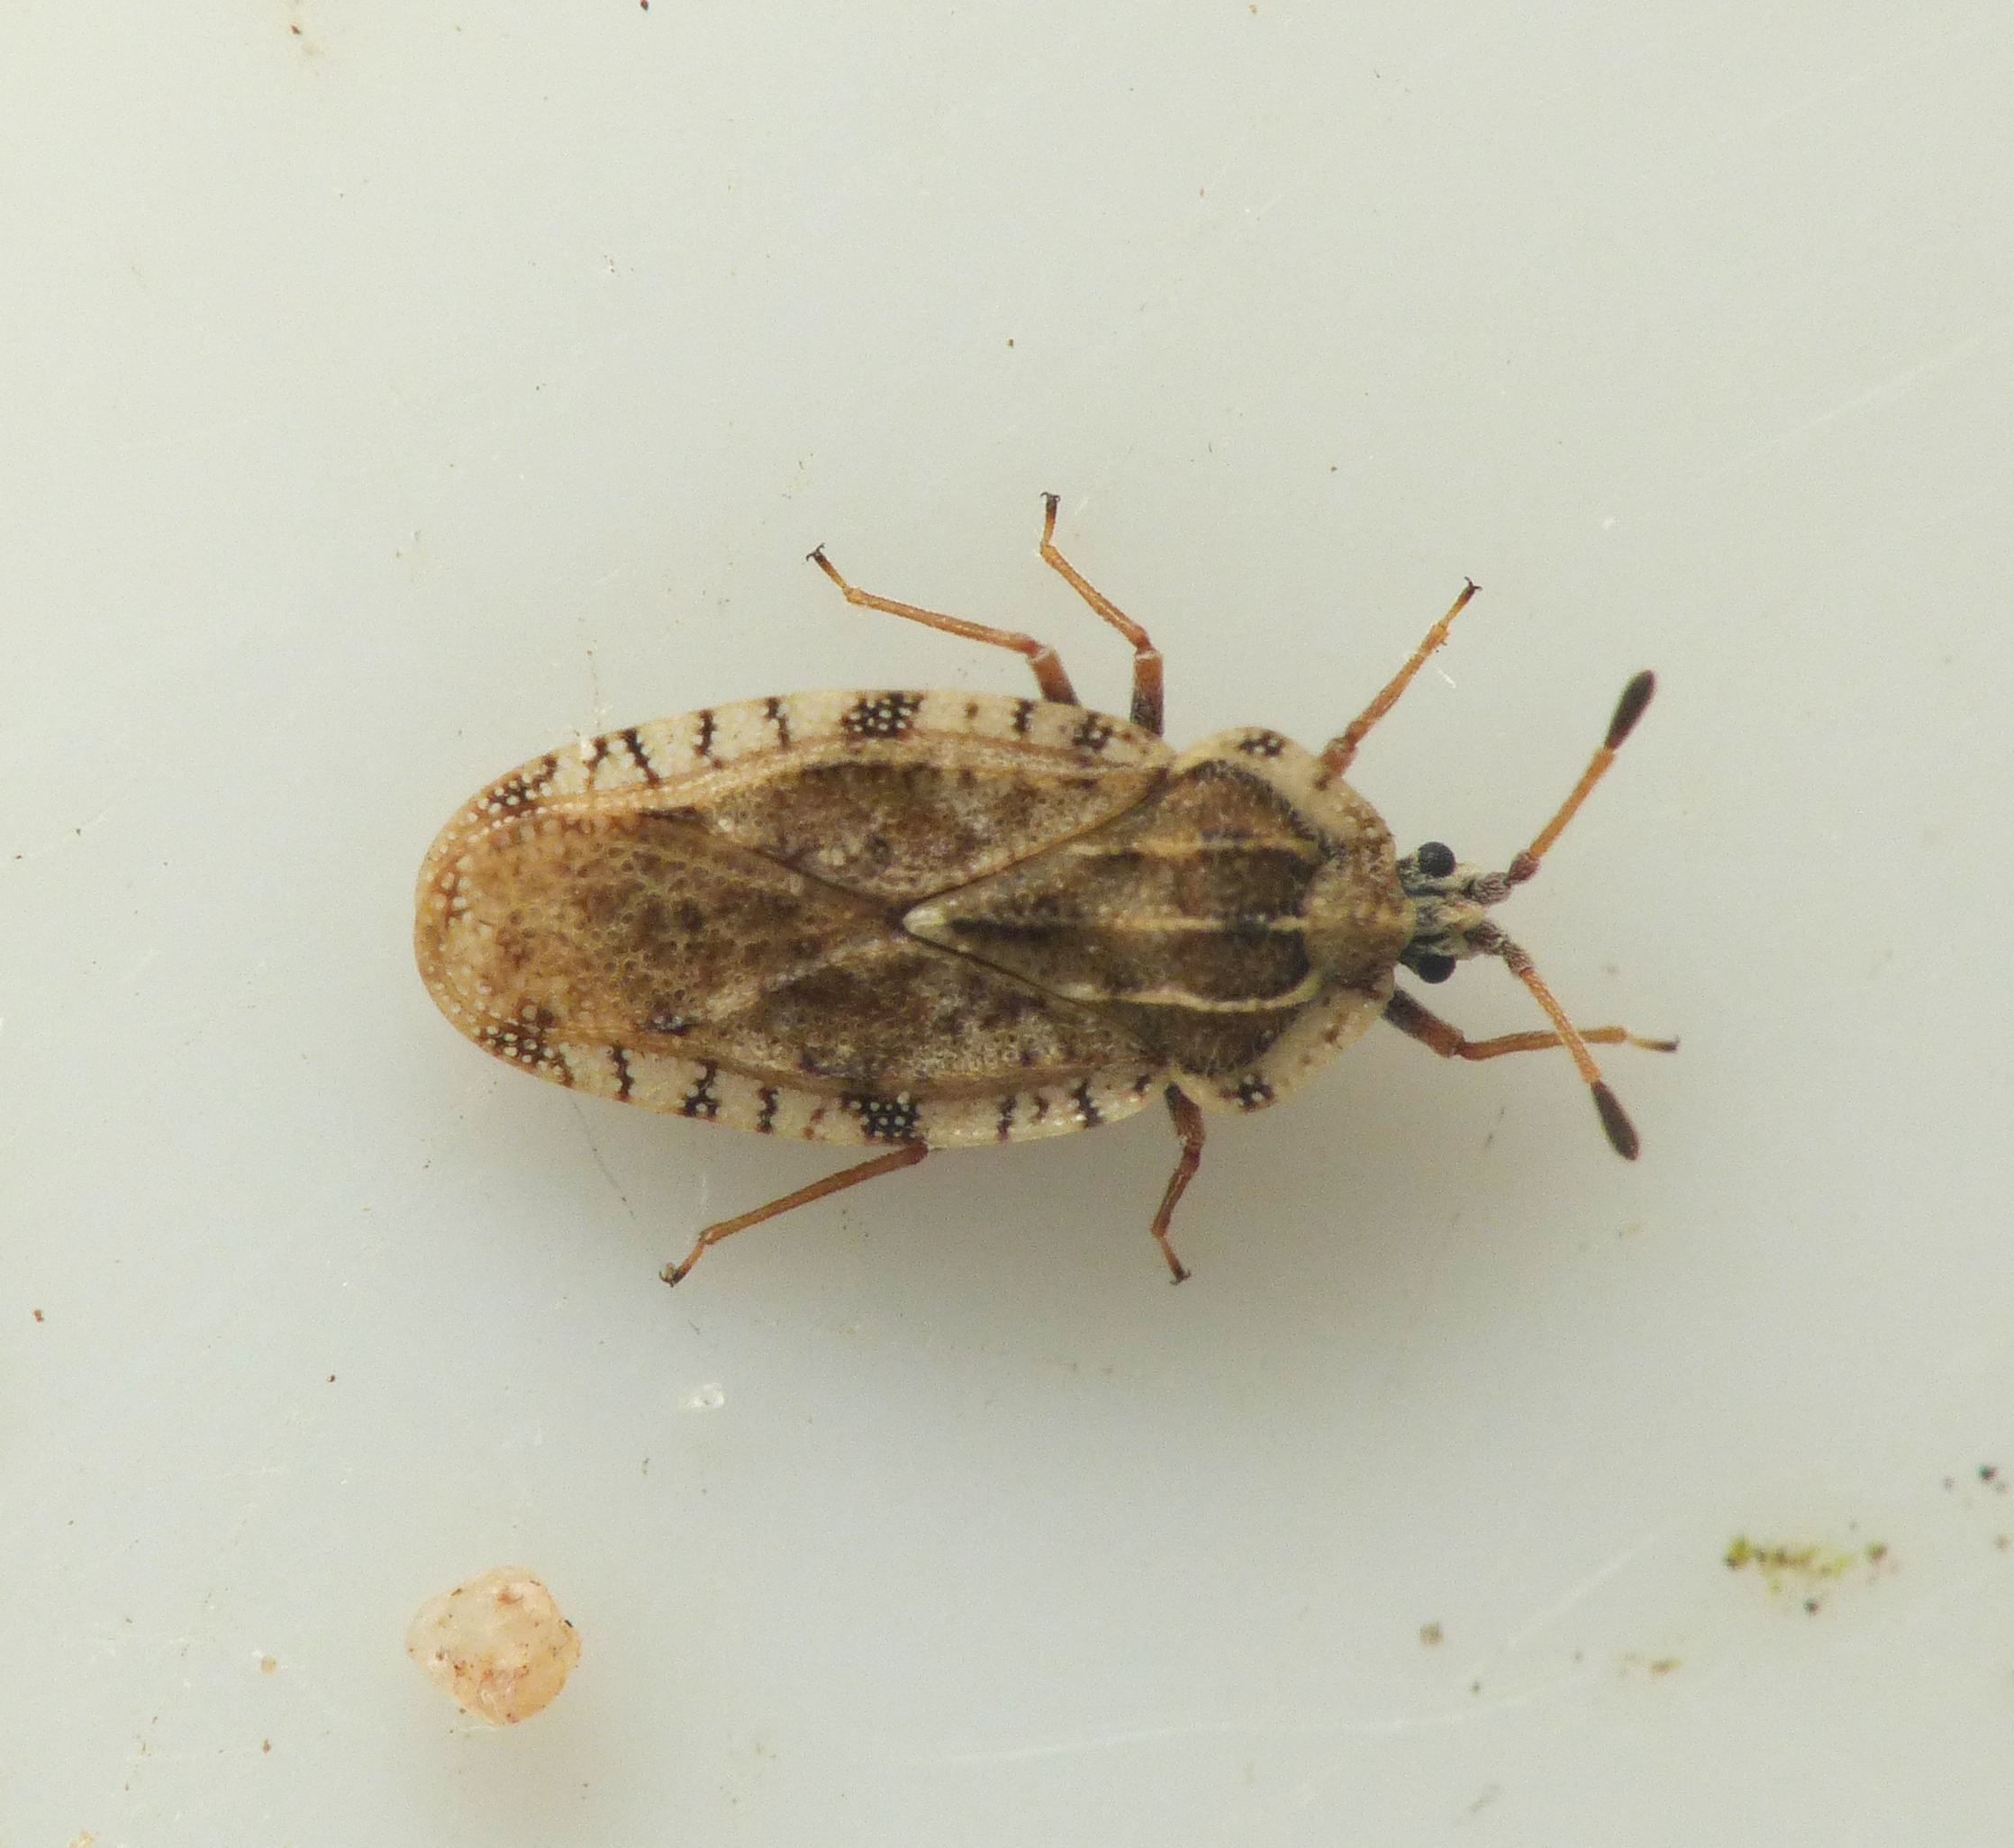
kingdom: Animalia
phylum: Arthropoda
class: Insecta
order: Hemiptera
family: Tingidae
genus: Tingis
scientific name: Tingis cardui
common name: Tidseltæge
